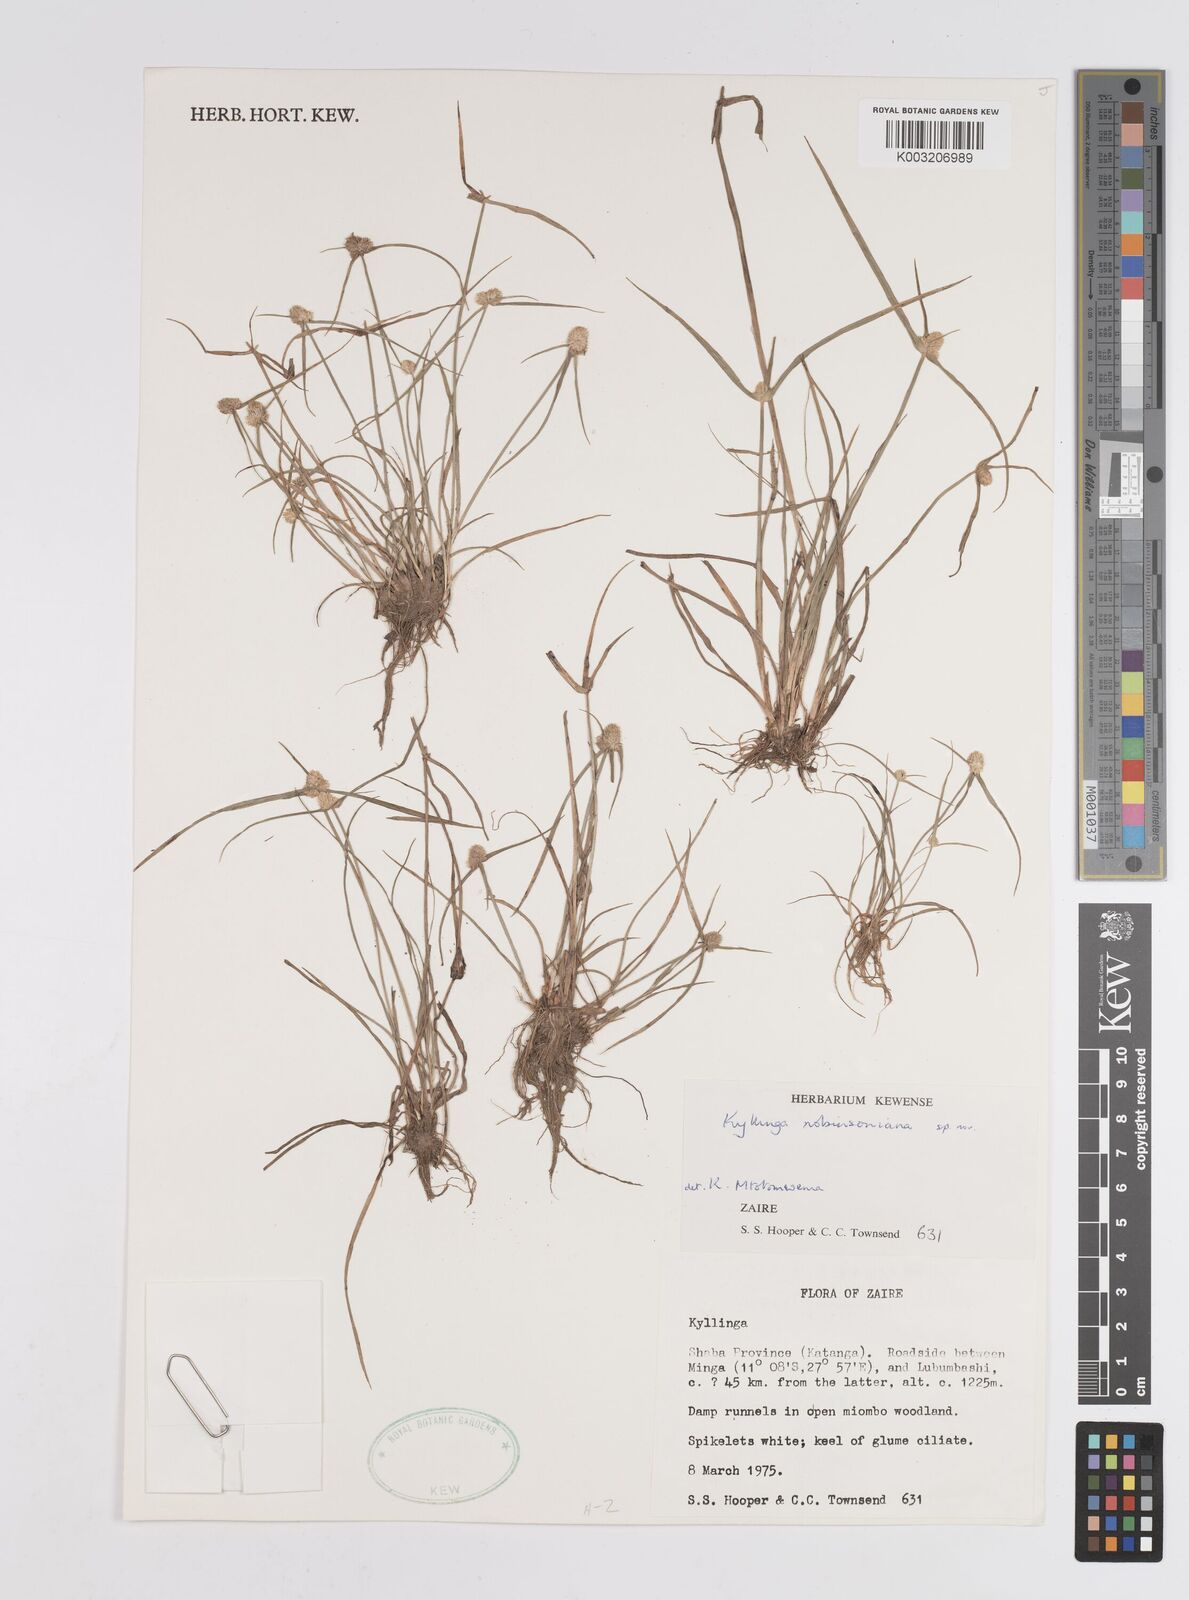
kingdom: Plantae
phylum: Tracheophyta
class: Liliopsida
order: Poales
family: Cyperaceae
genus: Cyperus
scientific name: Cyperus robinsonianus
